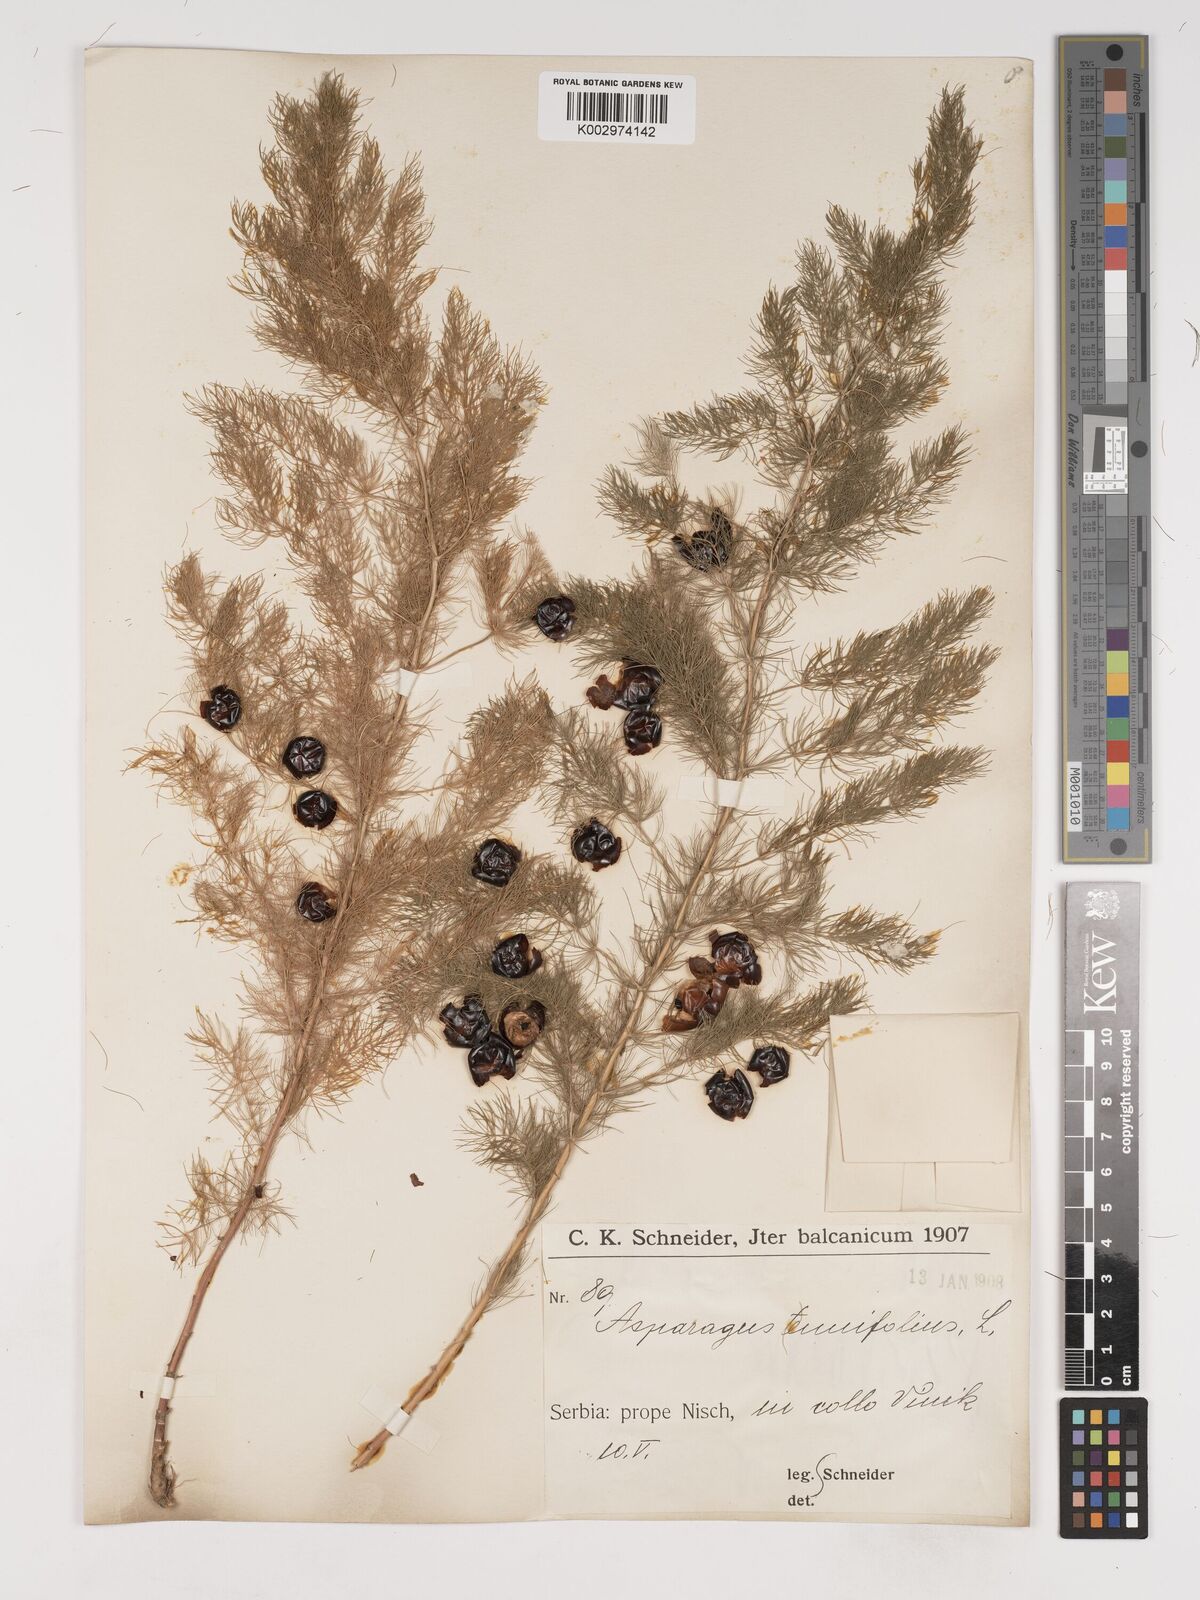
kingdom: Plantae
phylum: Tracheophyta
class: Liliopsida
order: Asparagales
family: Asparagaceae
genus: Asparagus
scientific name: Asparagus tenuifolius
